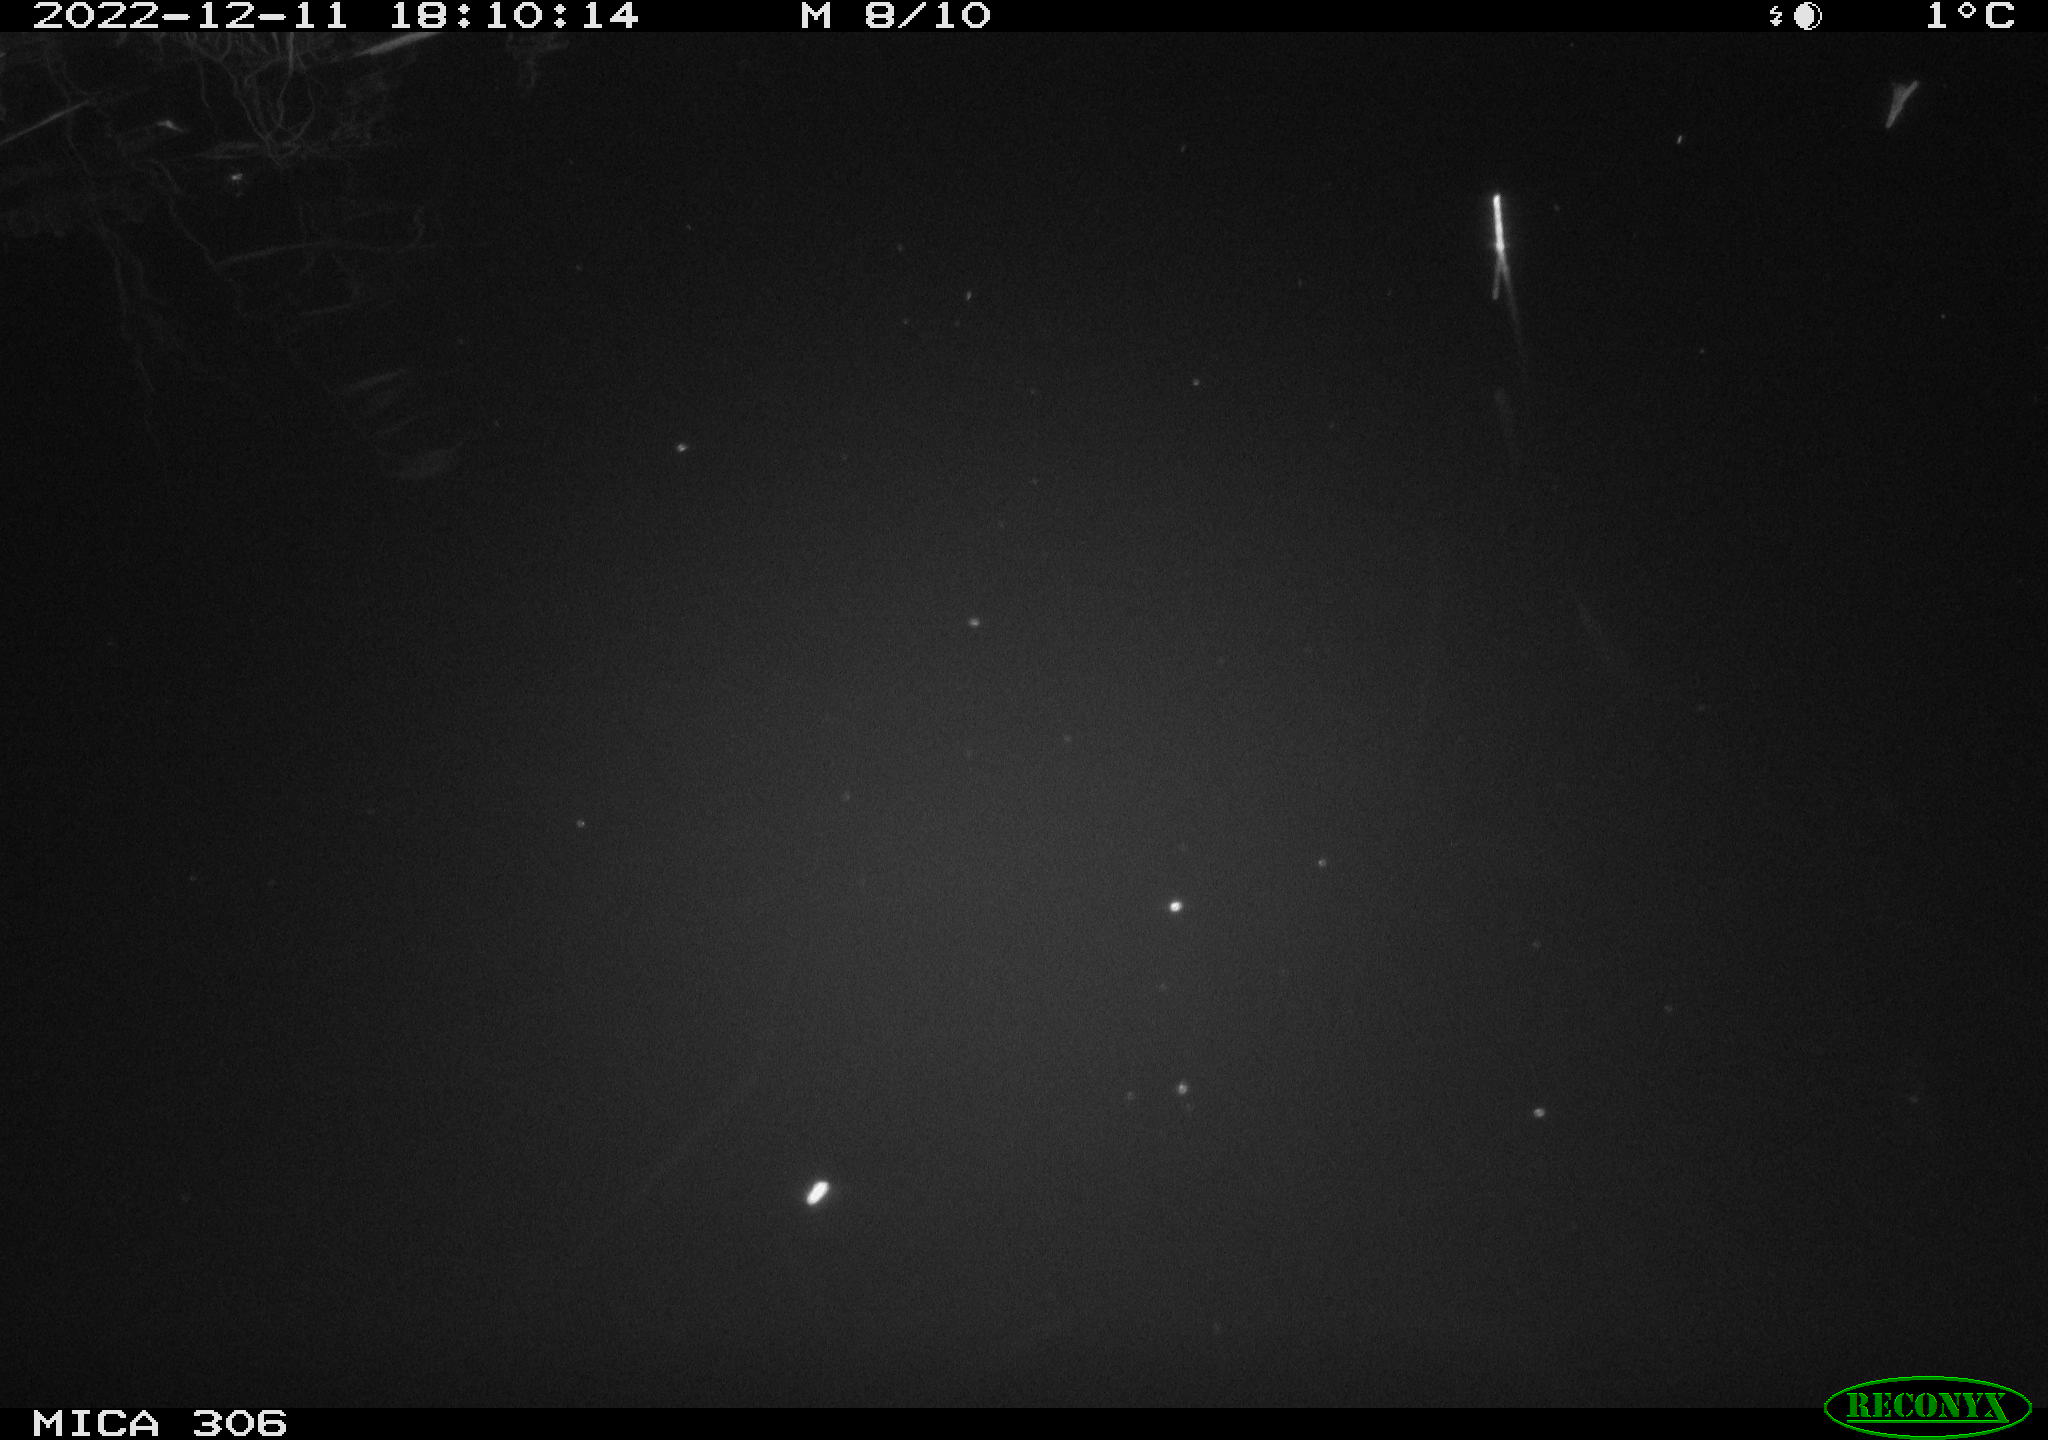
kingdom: Animalia
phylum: Chordata
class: Mammalia
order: Rodentia
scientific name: Rodentia
